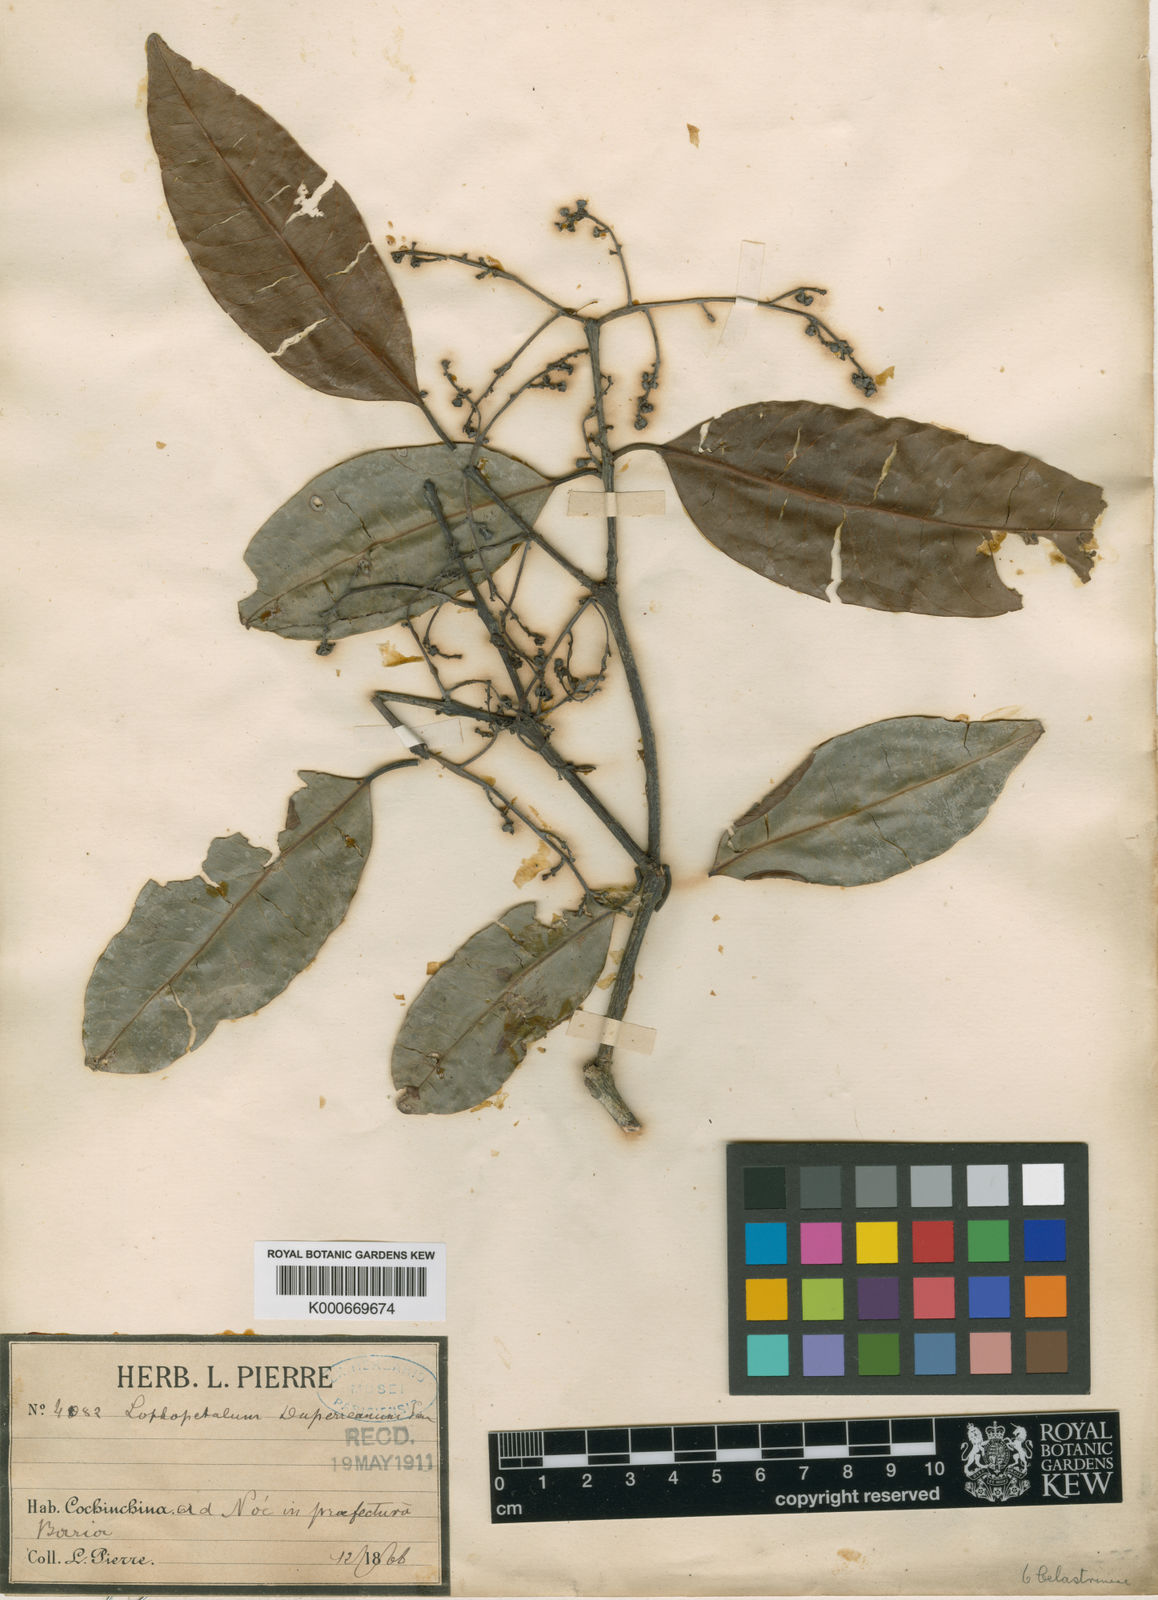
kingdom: Plantae
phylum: Tracheophyta
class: Magnoliopsida
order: Celastrales
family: Celastraceae
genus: Lophopetalum
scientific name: Lophopetalum duperreanum
